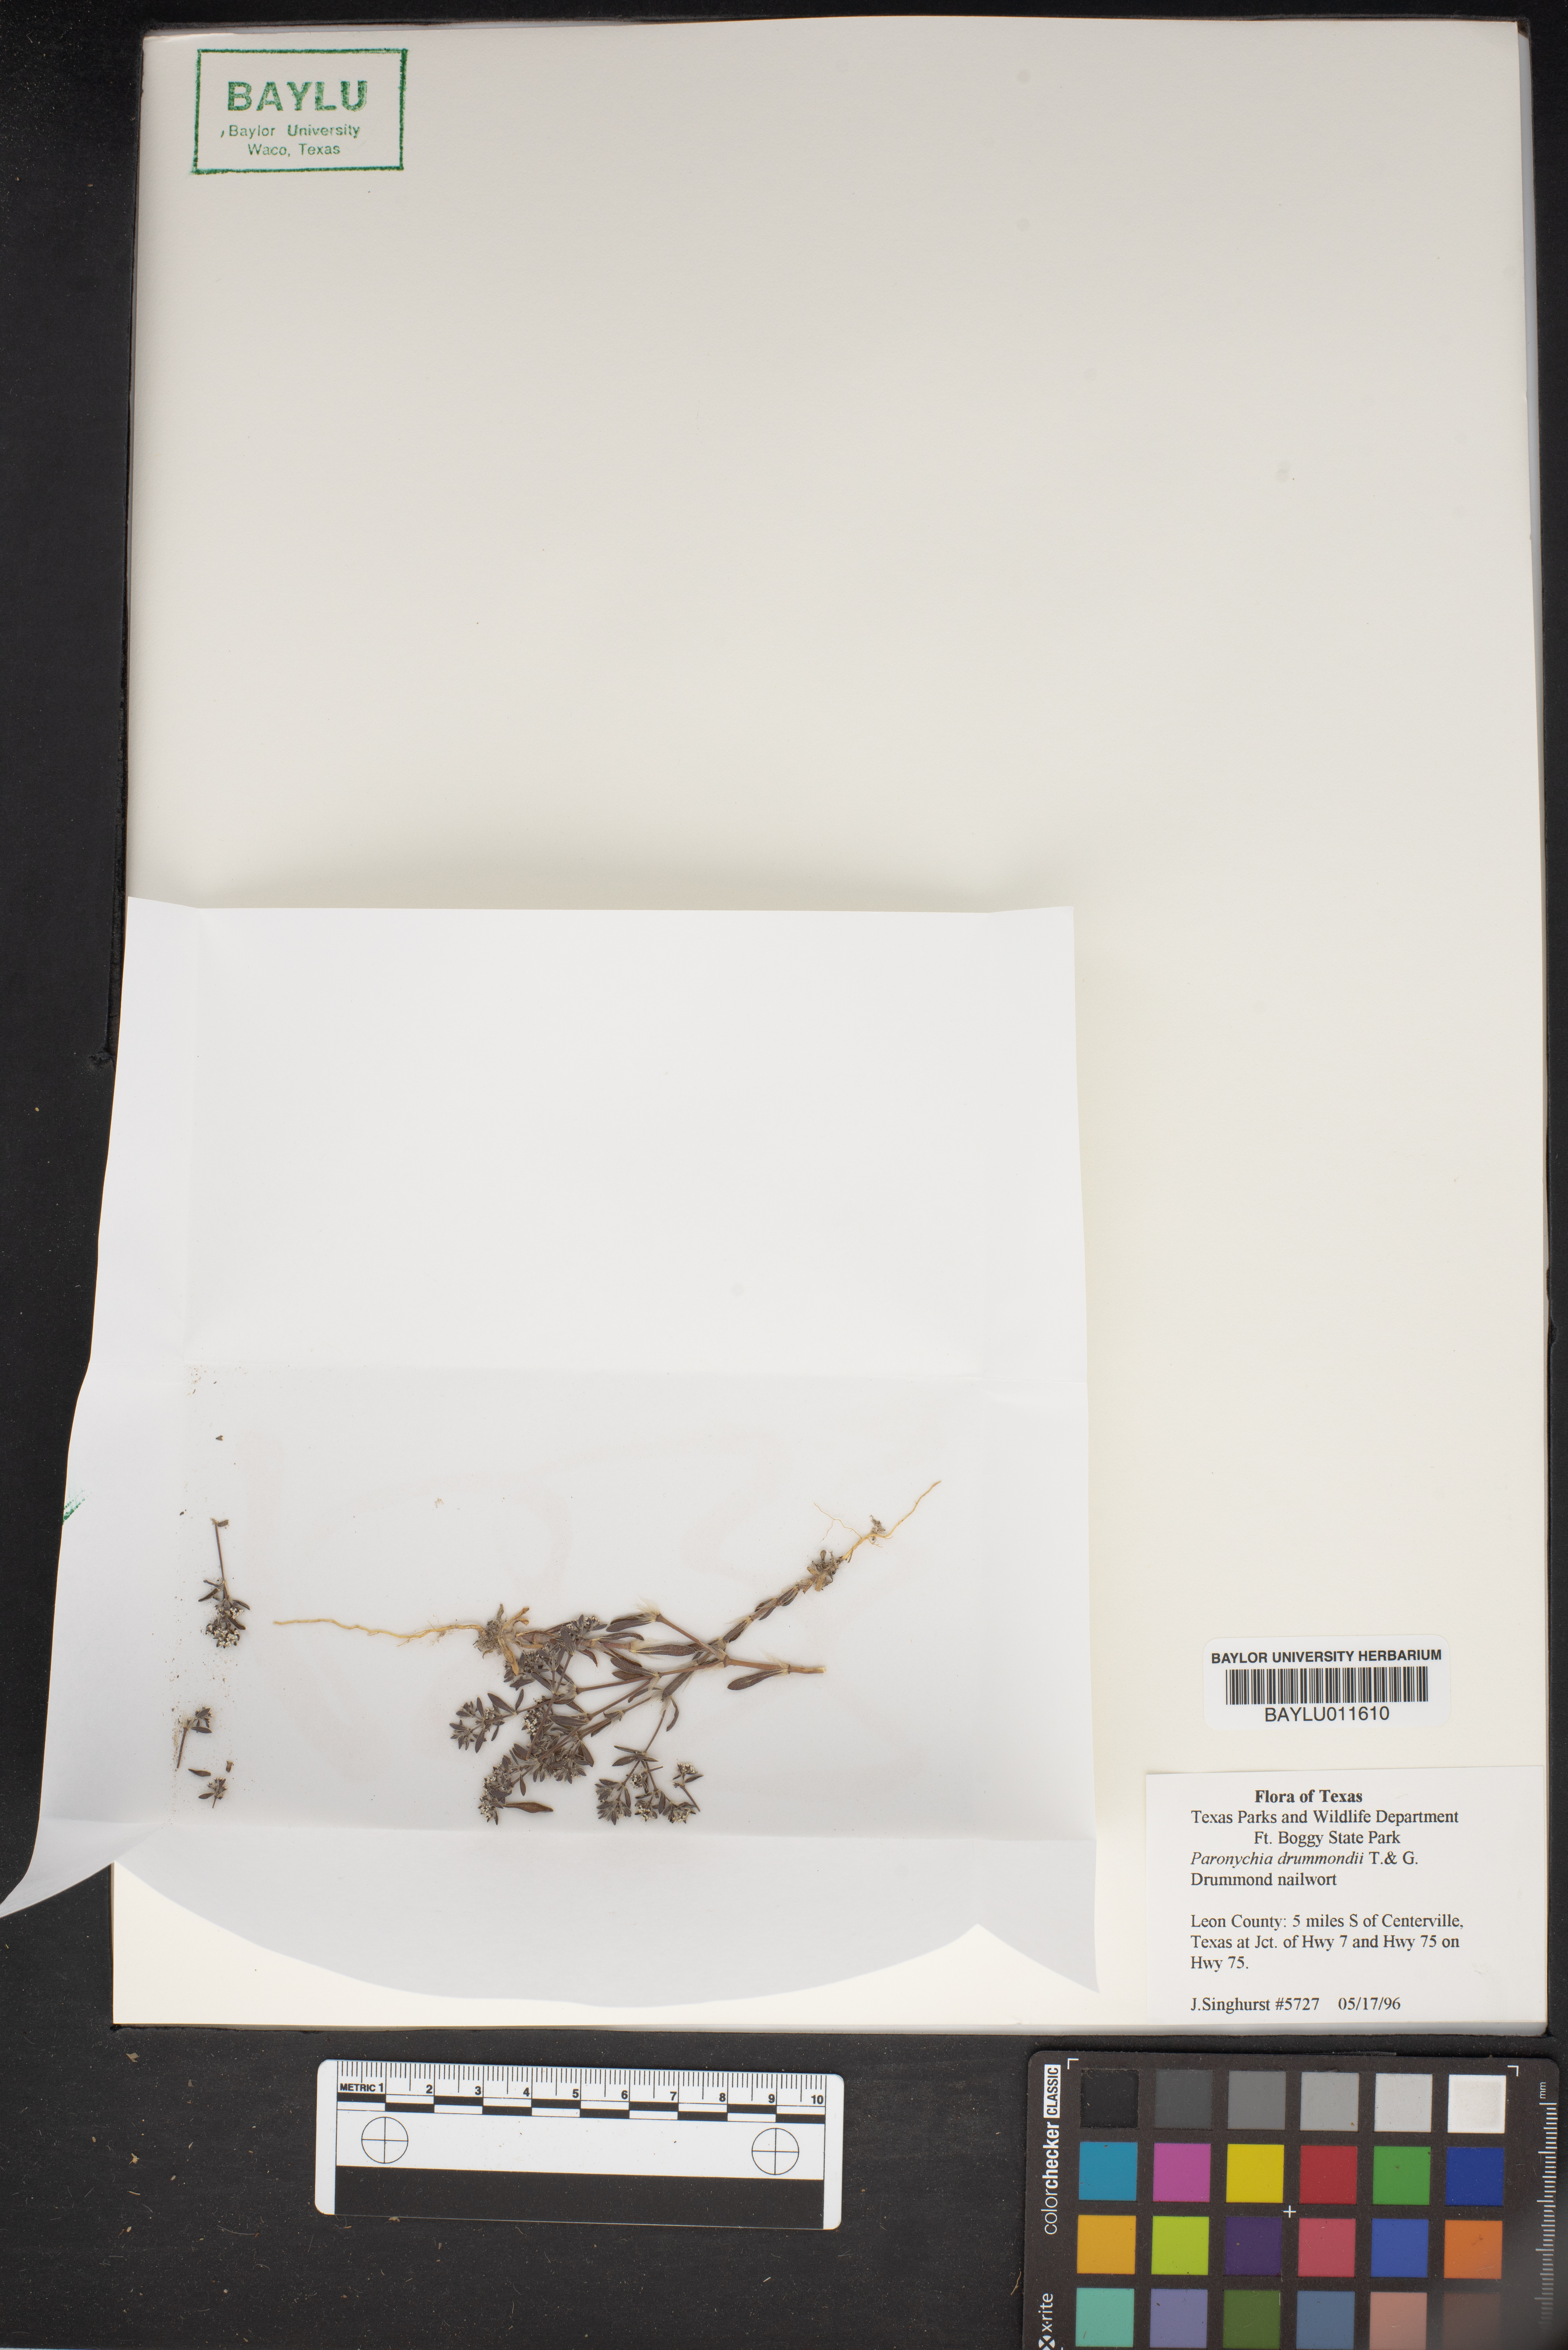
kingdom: Plantae
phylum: Tracheophyta
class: Magnoliopsida
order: Caryophyllales
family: Caryophyllaceae
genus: Paronychia
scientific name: Paronychia drummondii
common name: Drummond's nailwort
